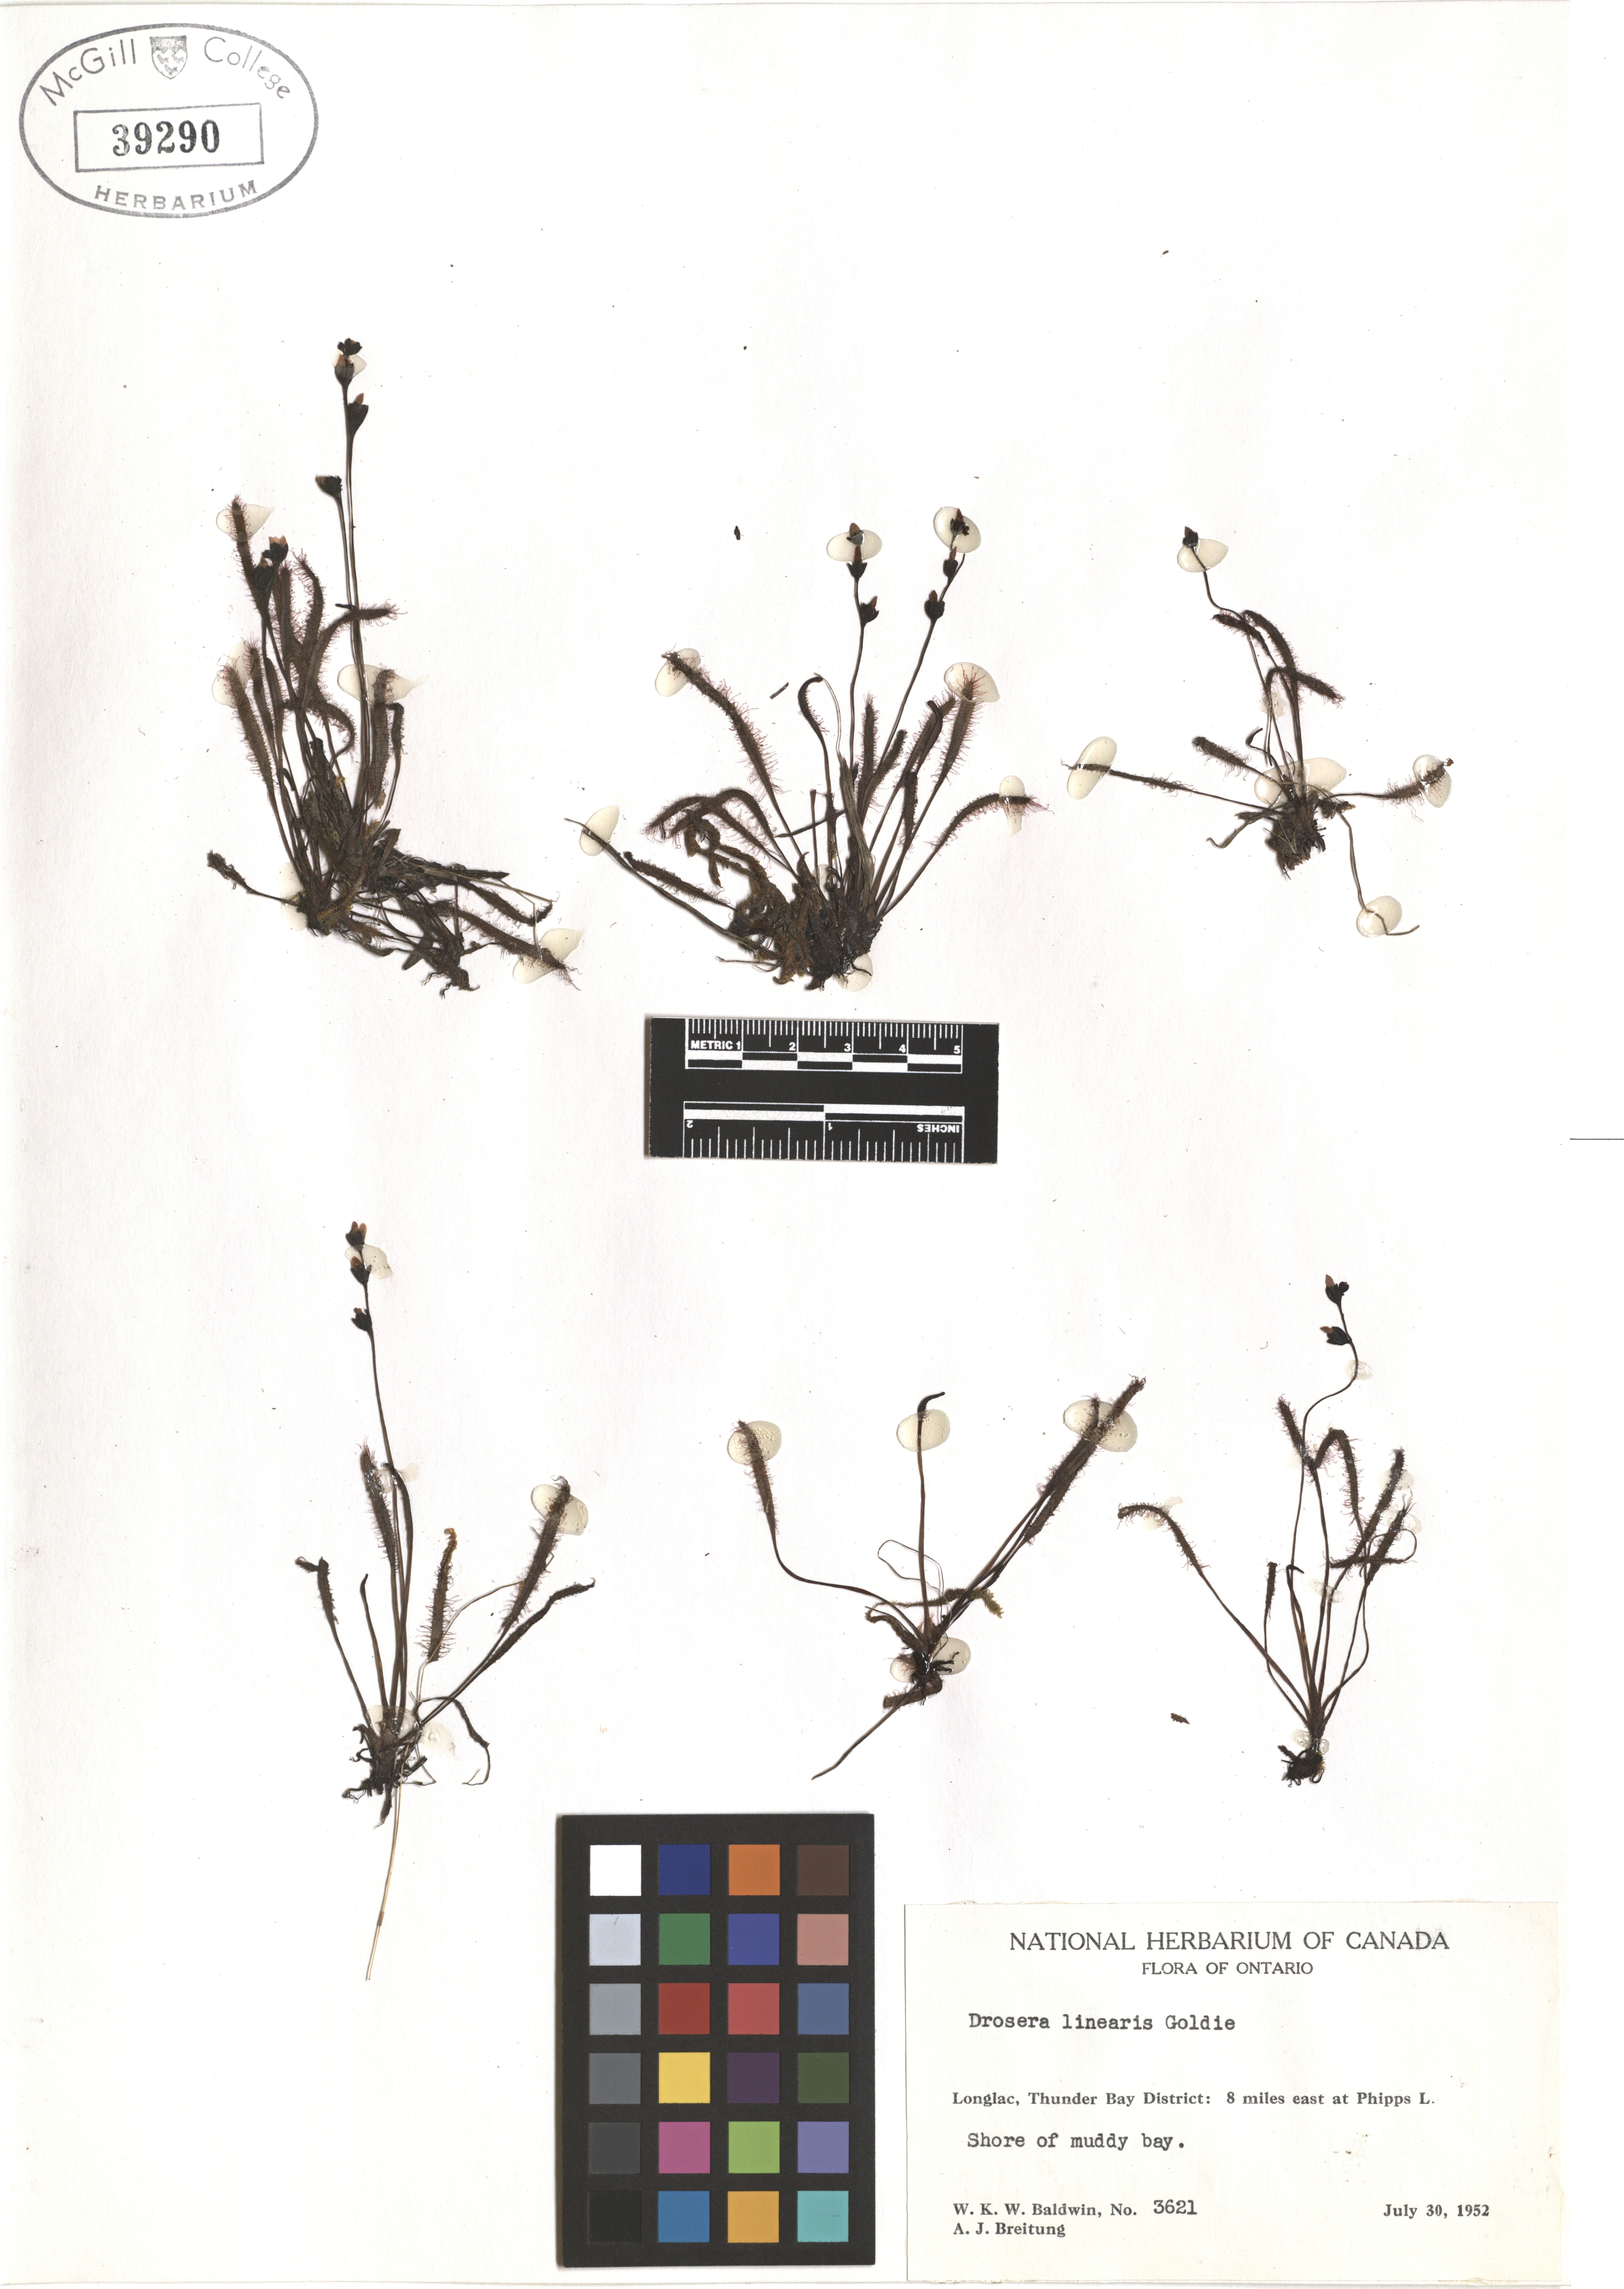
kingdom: Plantae
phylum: Tracheophyta
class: Magnoliopsida
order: Caryophyllales
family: Droseraceae
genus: Drosera
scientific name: Drosera linearis
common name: Linear-leaved sundew
